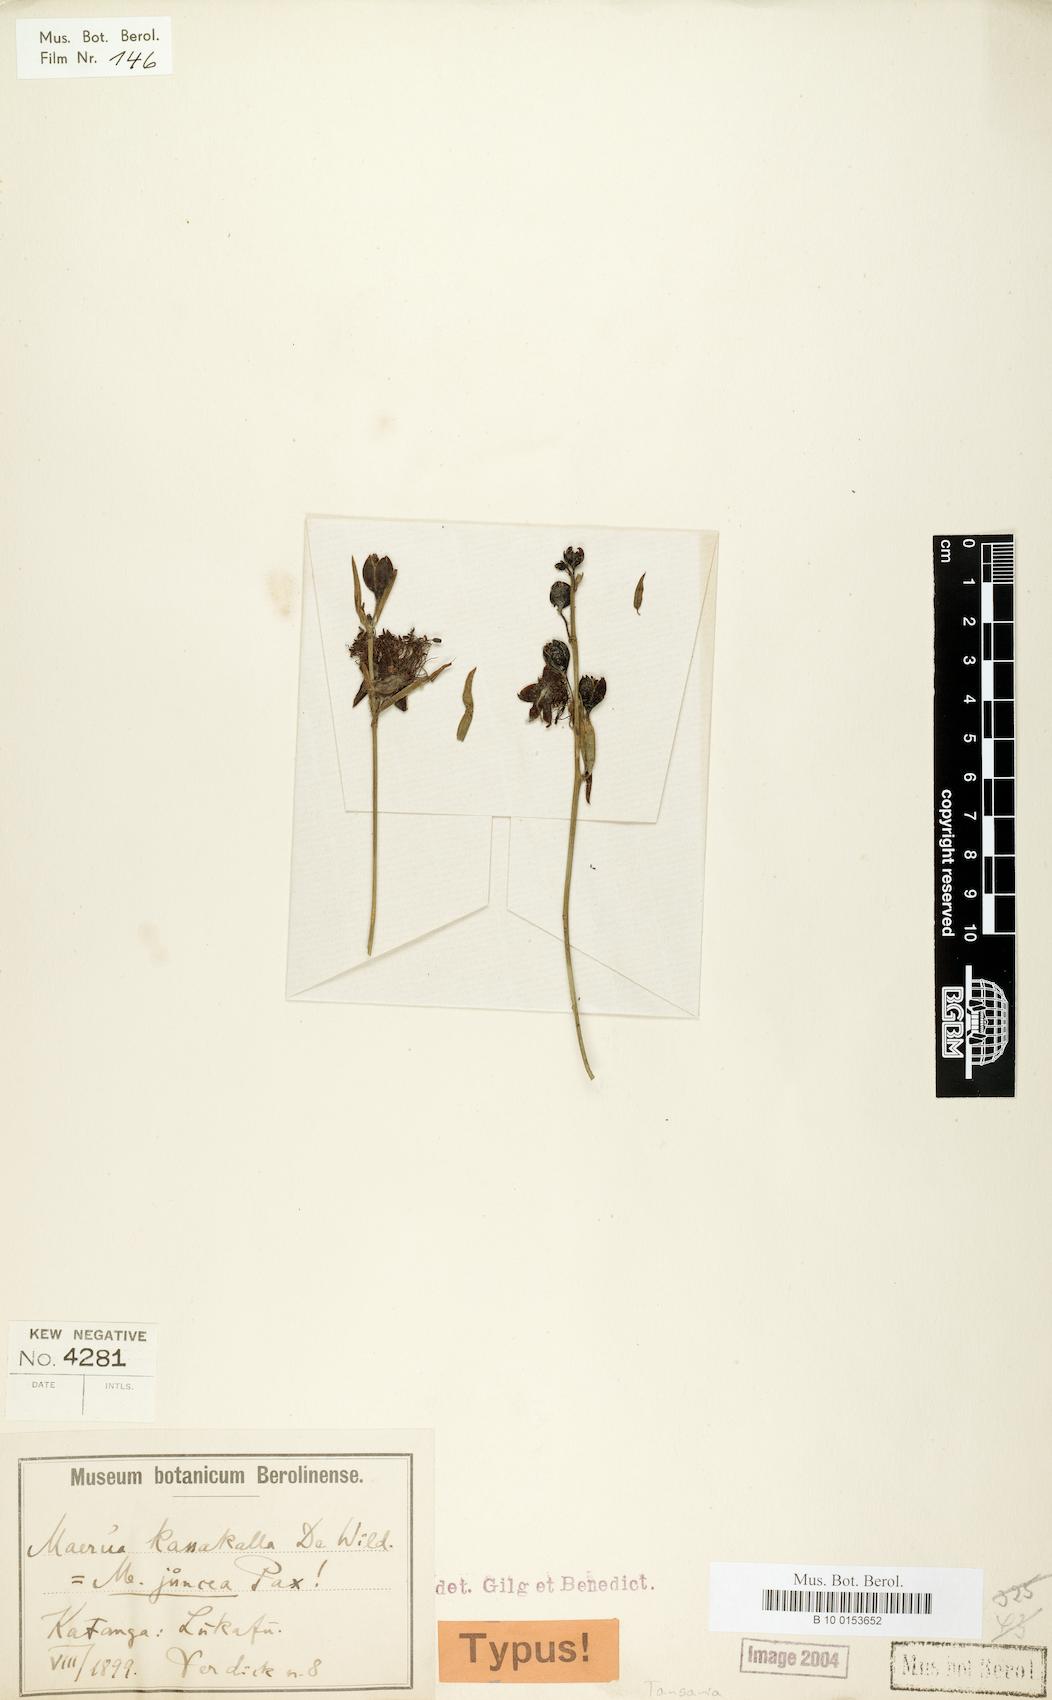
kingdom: Plantae
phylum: Tracheophyta
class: Magnoliopsida
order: Brassicales
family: Capparaceae
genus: Maerua
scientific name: Maerua juncea
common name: Rough-skinned bush cherry
